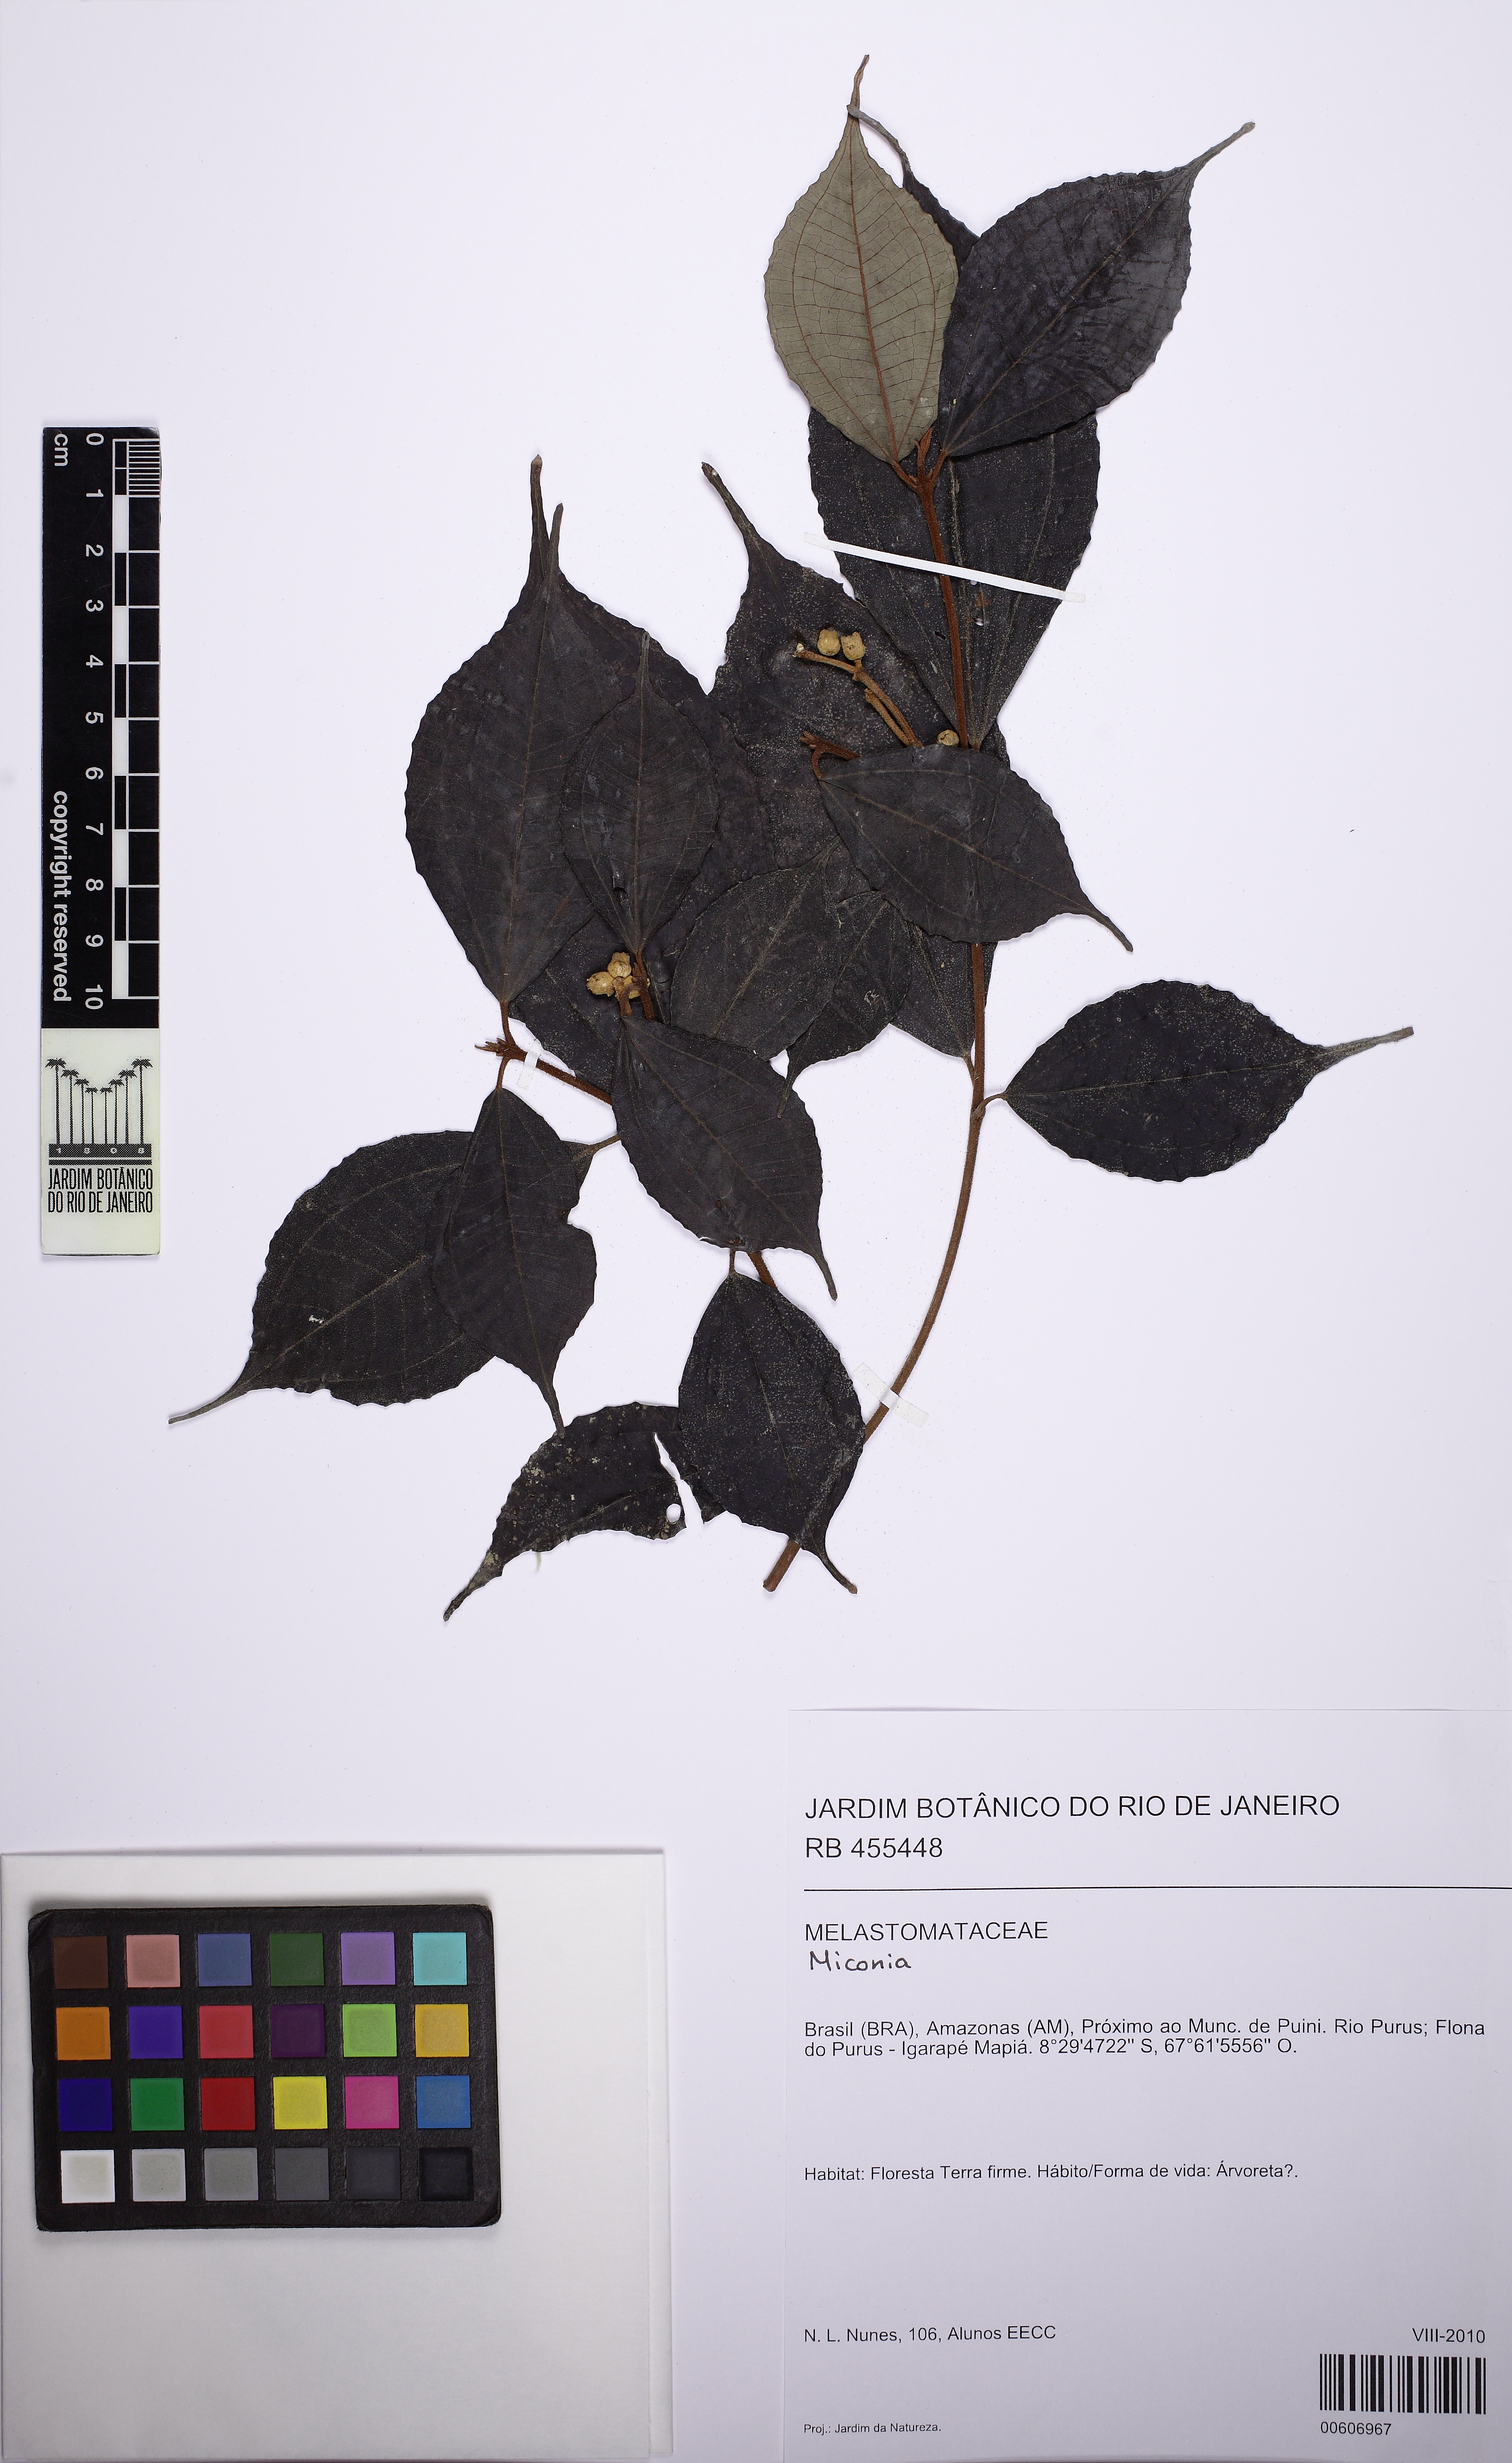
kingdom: Plantae
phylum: Tracheophyta
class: Magnoliopsida
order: Myrtales
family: Melastomataceae
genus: Miconia
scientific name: Miconia fosteri
